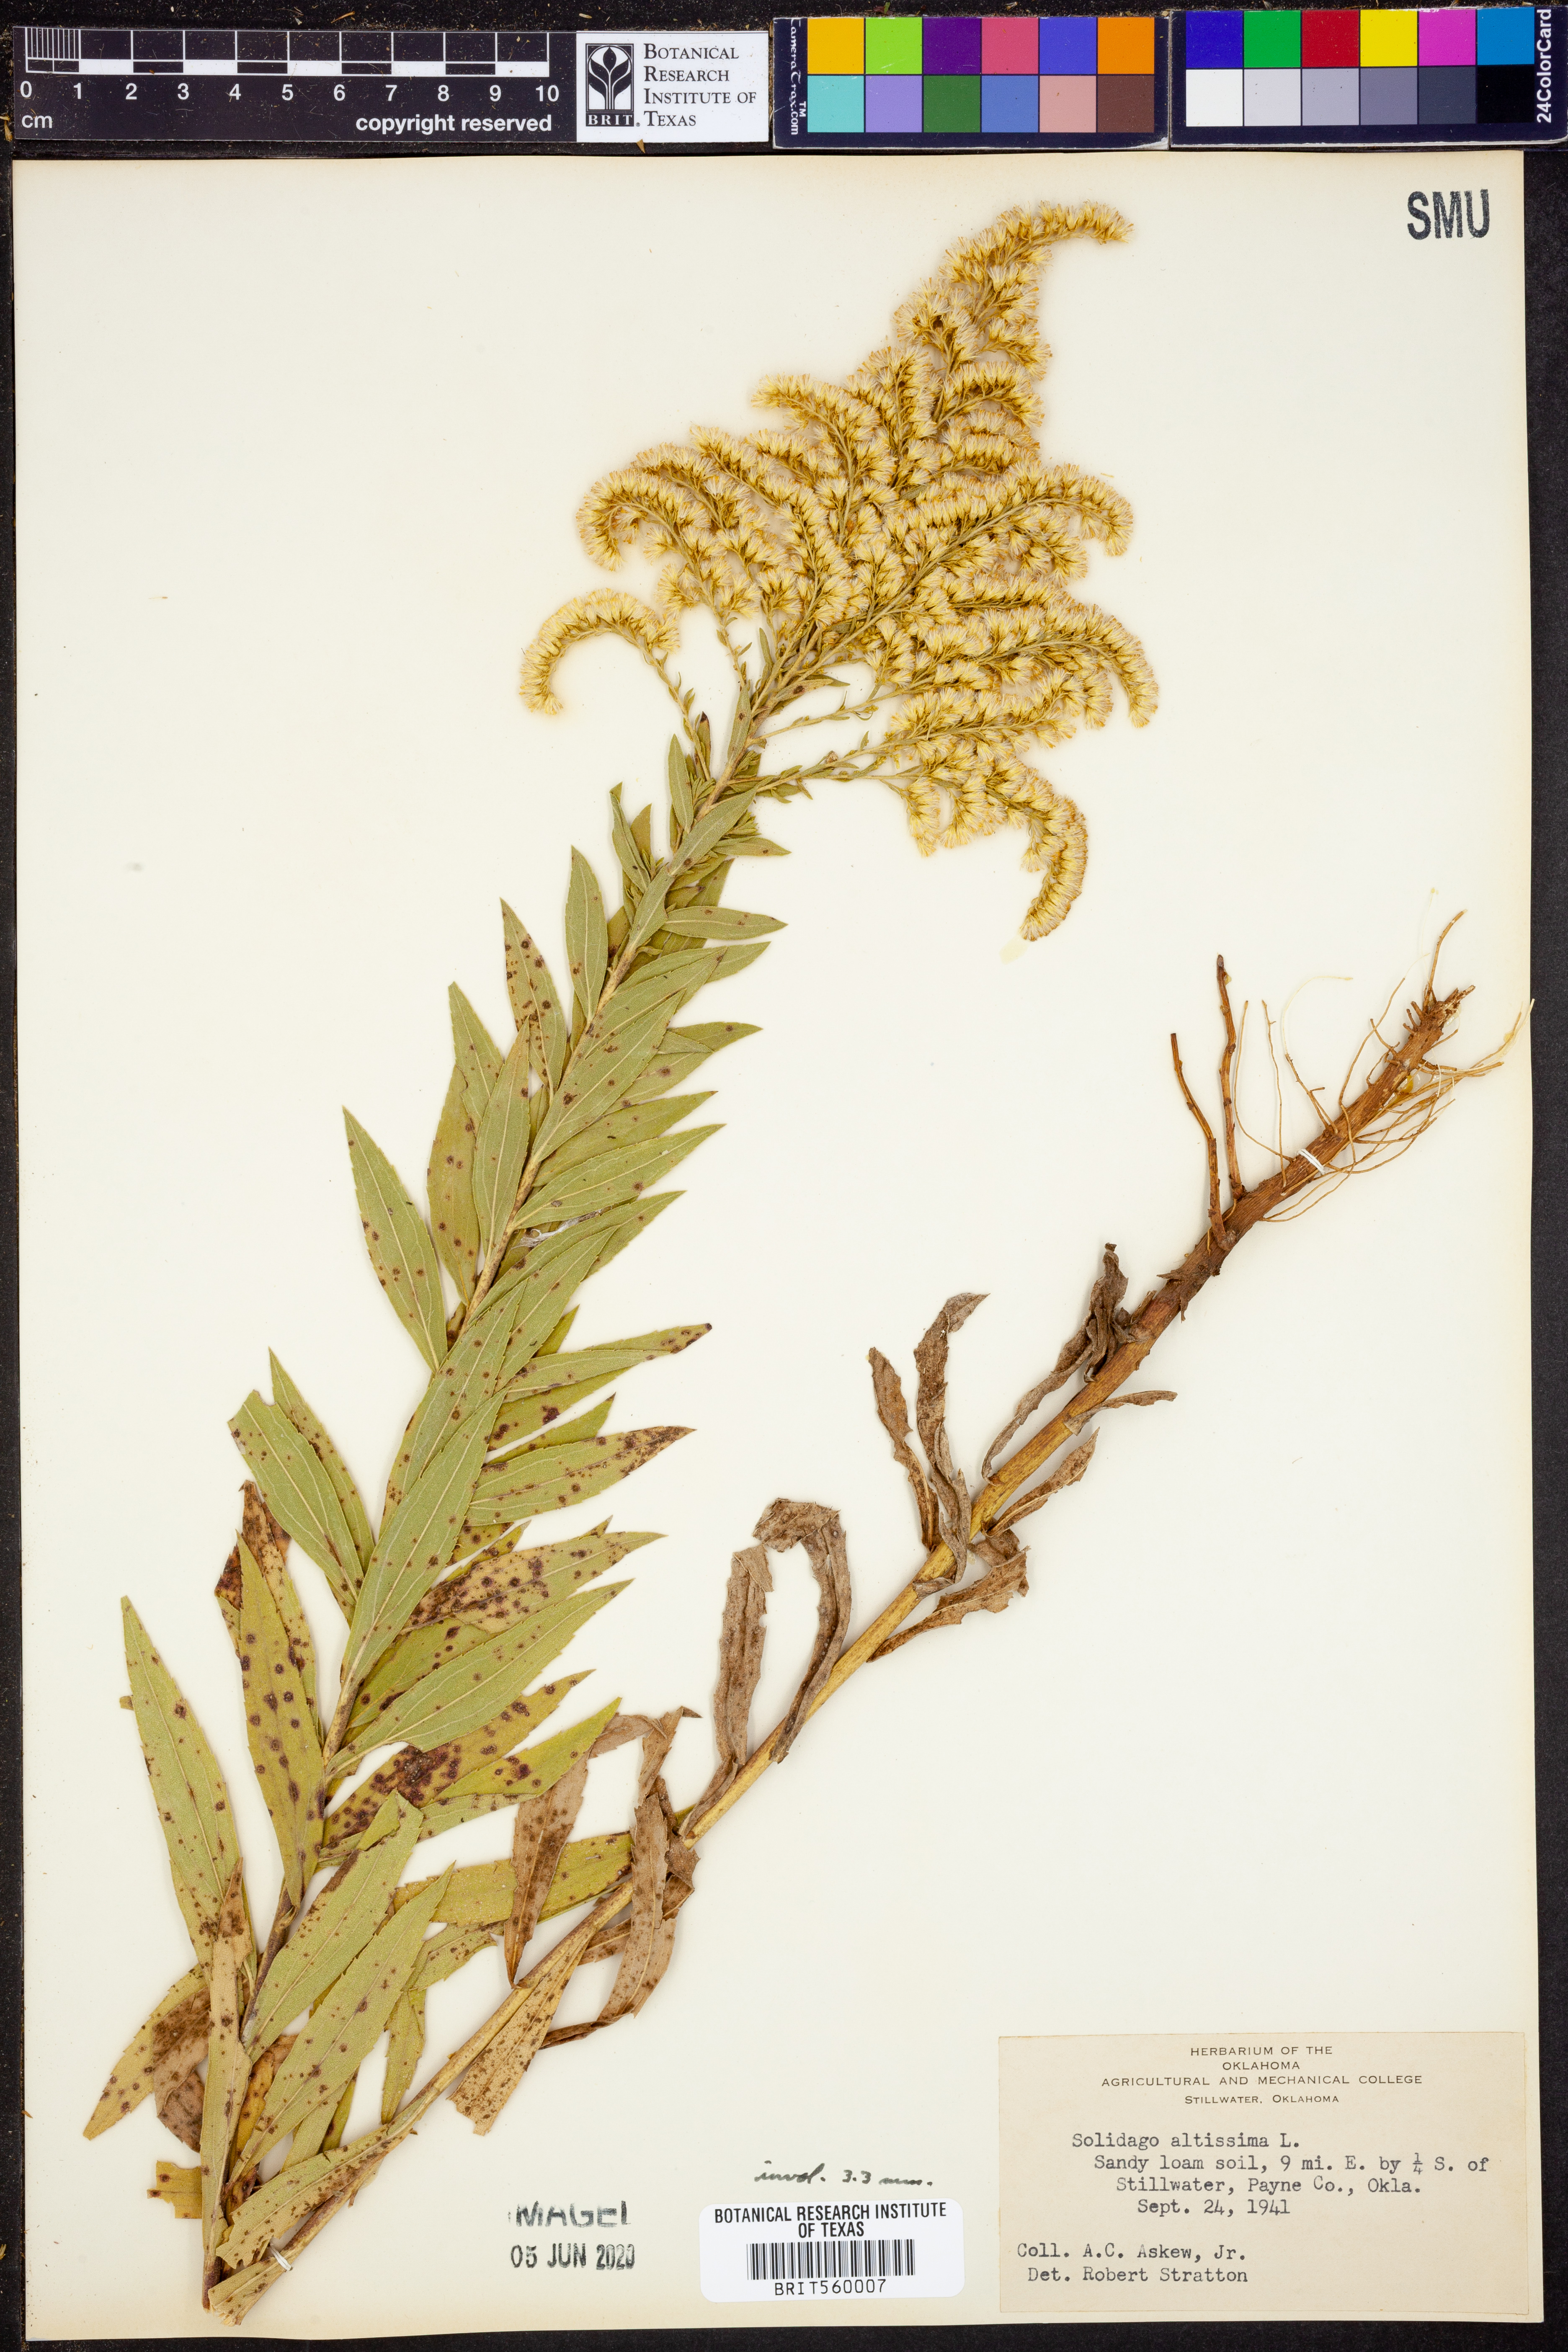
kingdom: Plantae
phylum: Tracheophyta
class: Magnoliopsida
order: Asterales
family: Asteraceae
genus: Solidago
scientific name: Solidago altissima
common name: Late goldenrod
